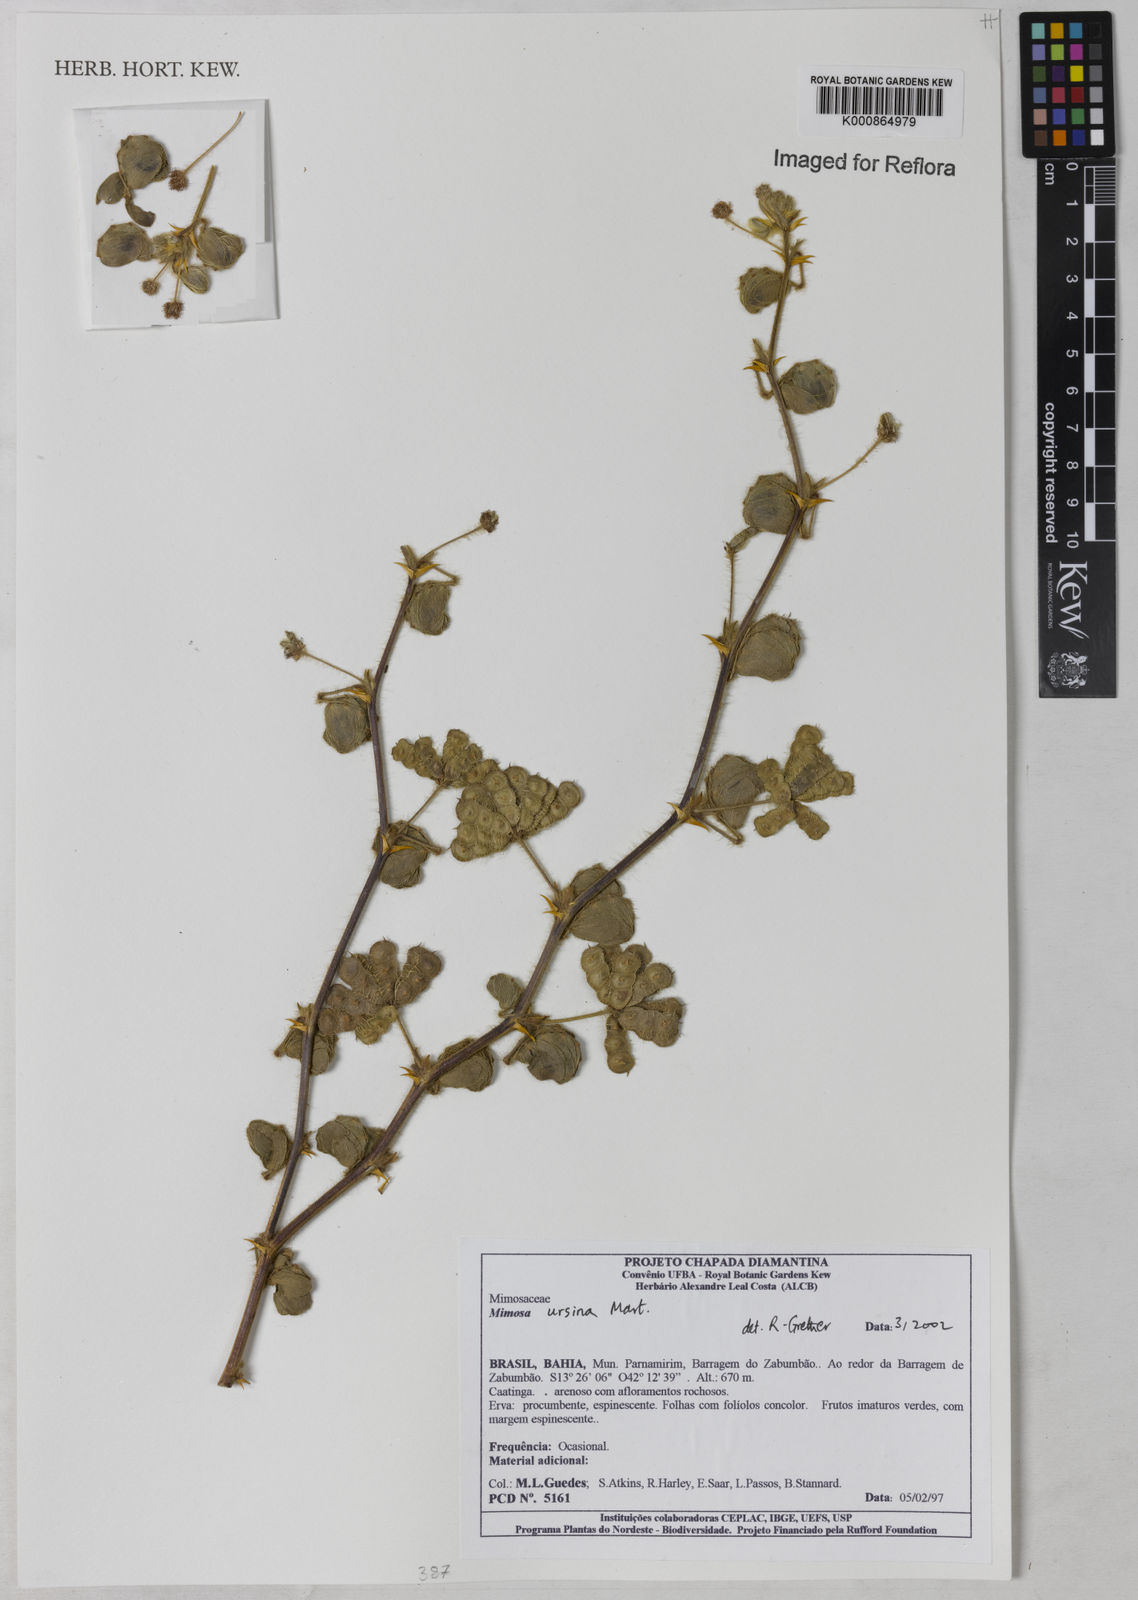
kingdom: Plantae
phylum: Tracheophyta
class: Magnoliopsida
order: Fabales
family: Fabaceae
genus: Mimosa
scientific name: Mimosa ursina
